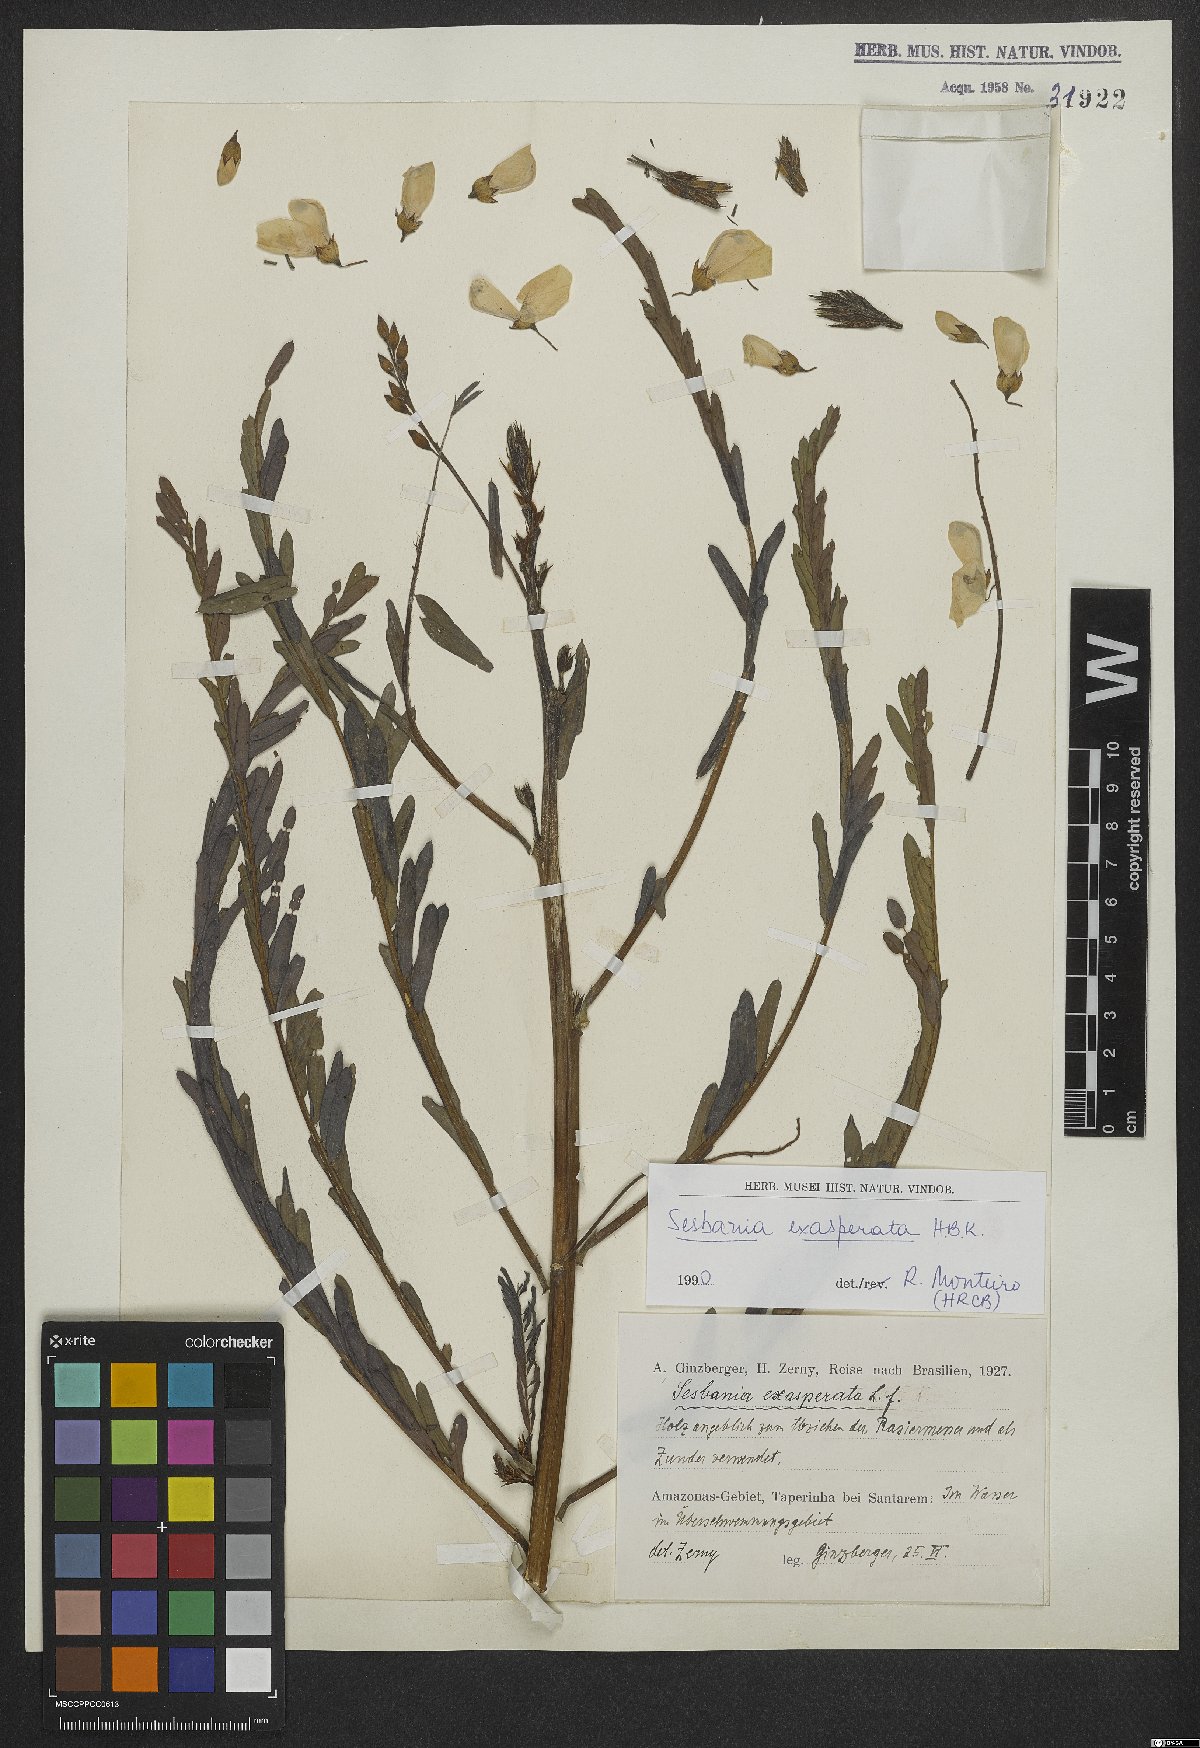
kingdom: Plantae
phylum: Tracheophyta
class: Magnoliopsida
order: Fabales
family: Fabaceae
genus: Sesbania
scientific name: Sesbania exasperata
